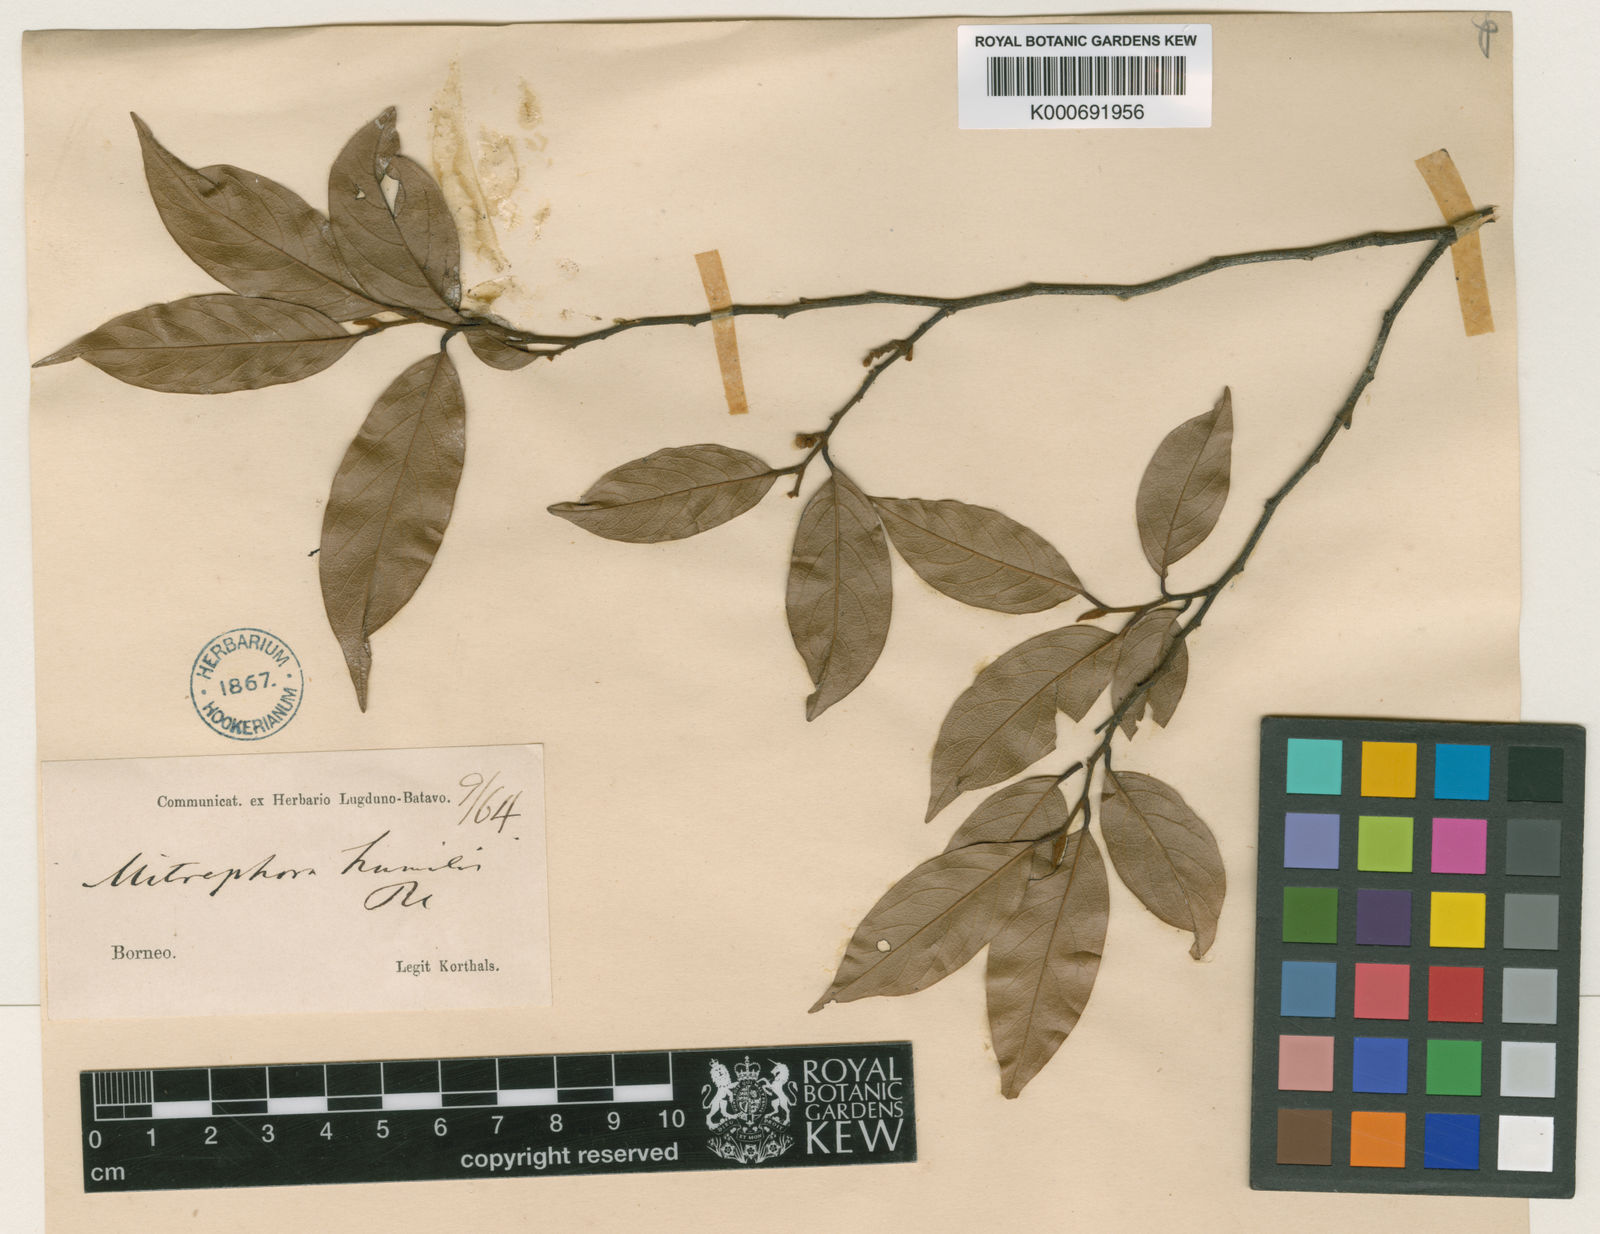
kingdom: Plantae
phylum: Tracheophyta
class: Magnoliopsida
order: Magnoliales
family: Annonaceae
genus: Mitrephora
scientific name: Mitrephora
